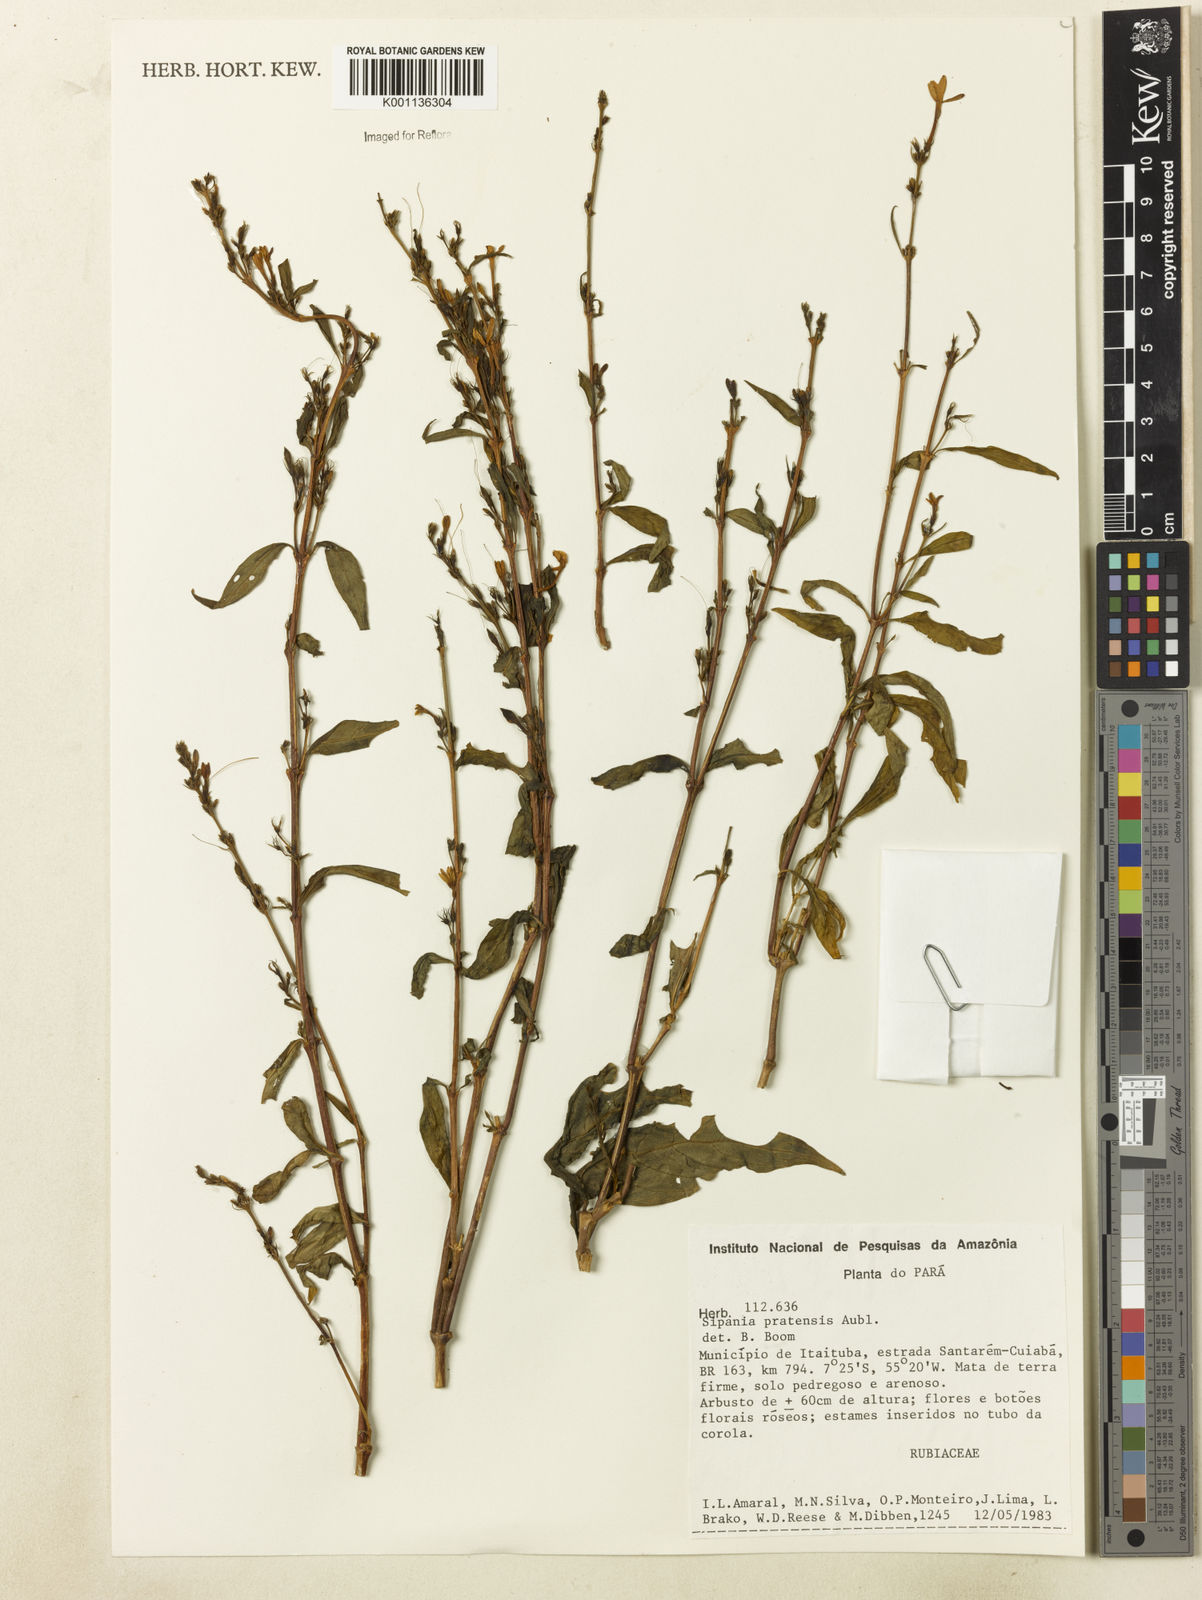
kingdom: Plantae
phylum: Tracheophyta
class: Magnoliopsida
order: Gentianales
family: Rubiaceae
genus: Sipanea
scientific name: Sipanea pratensis
